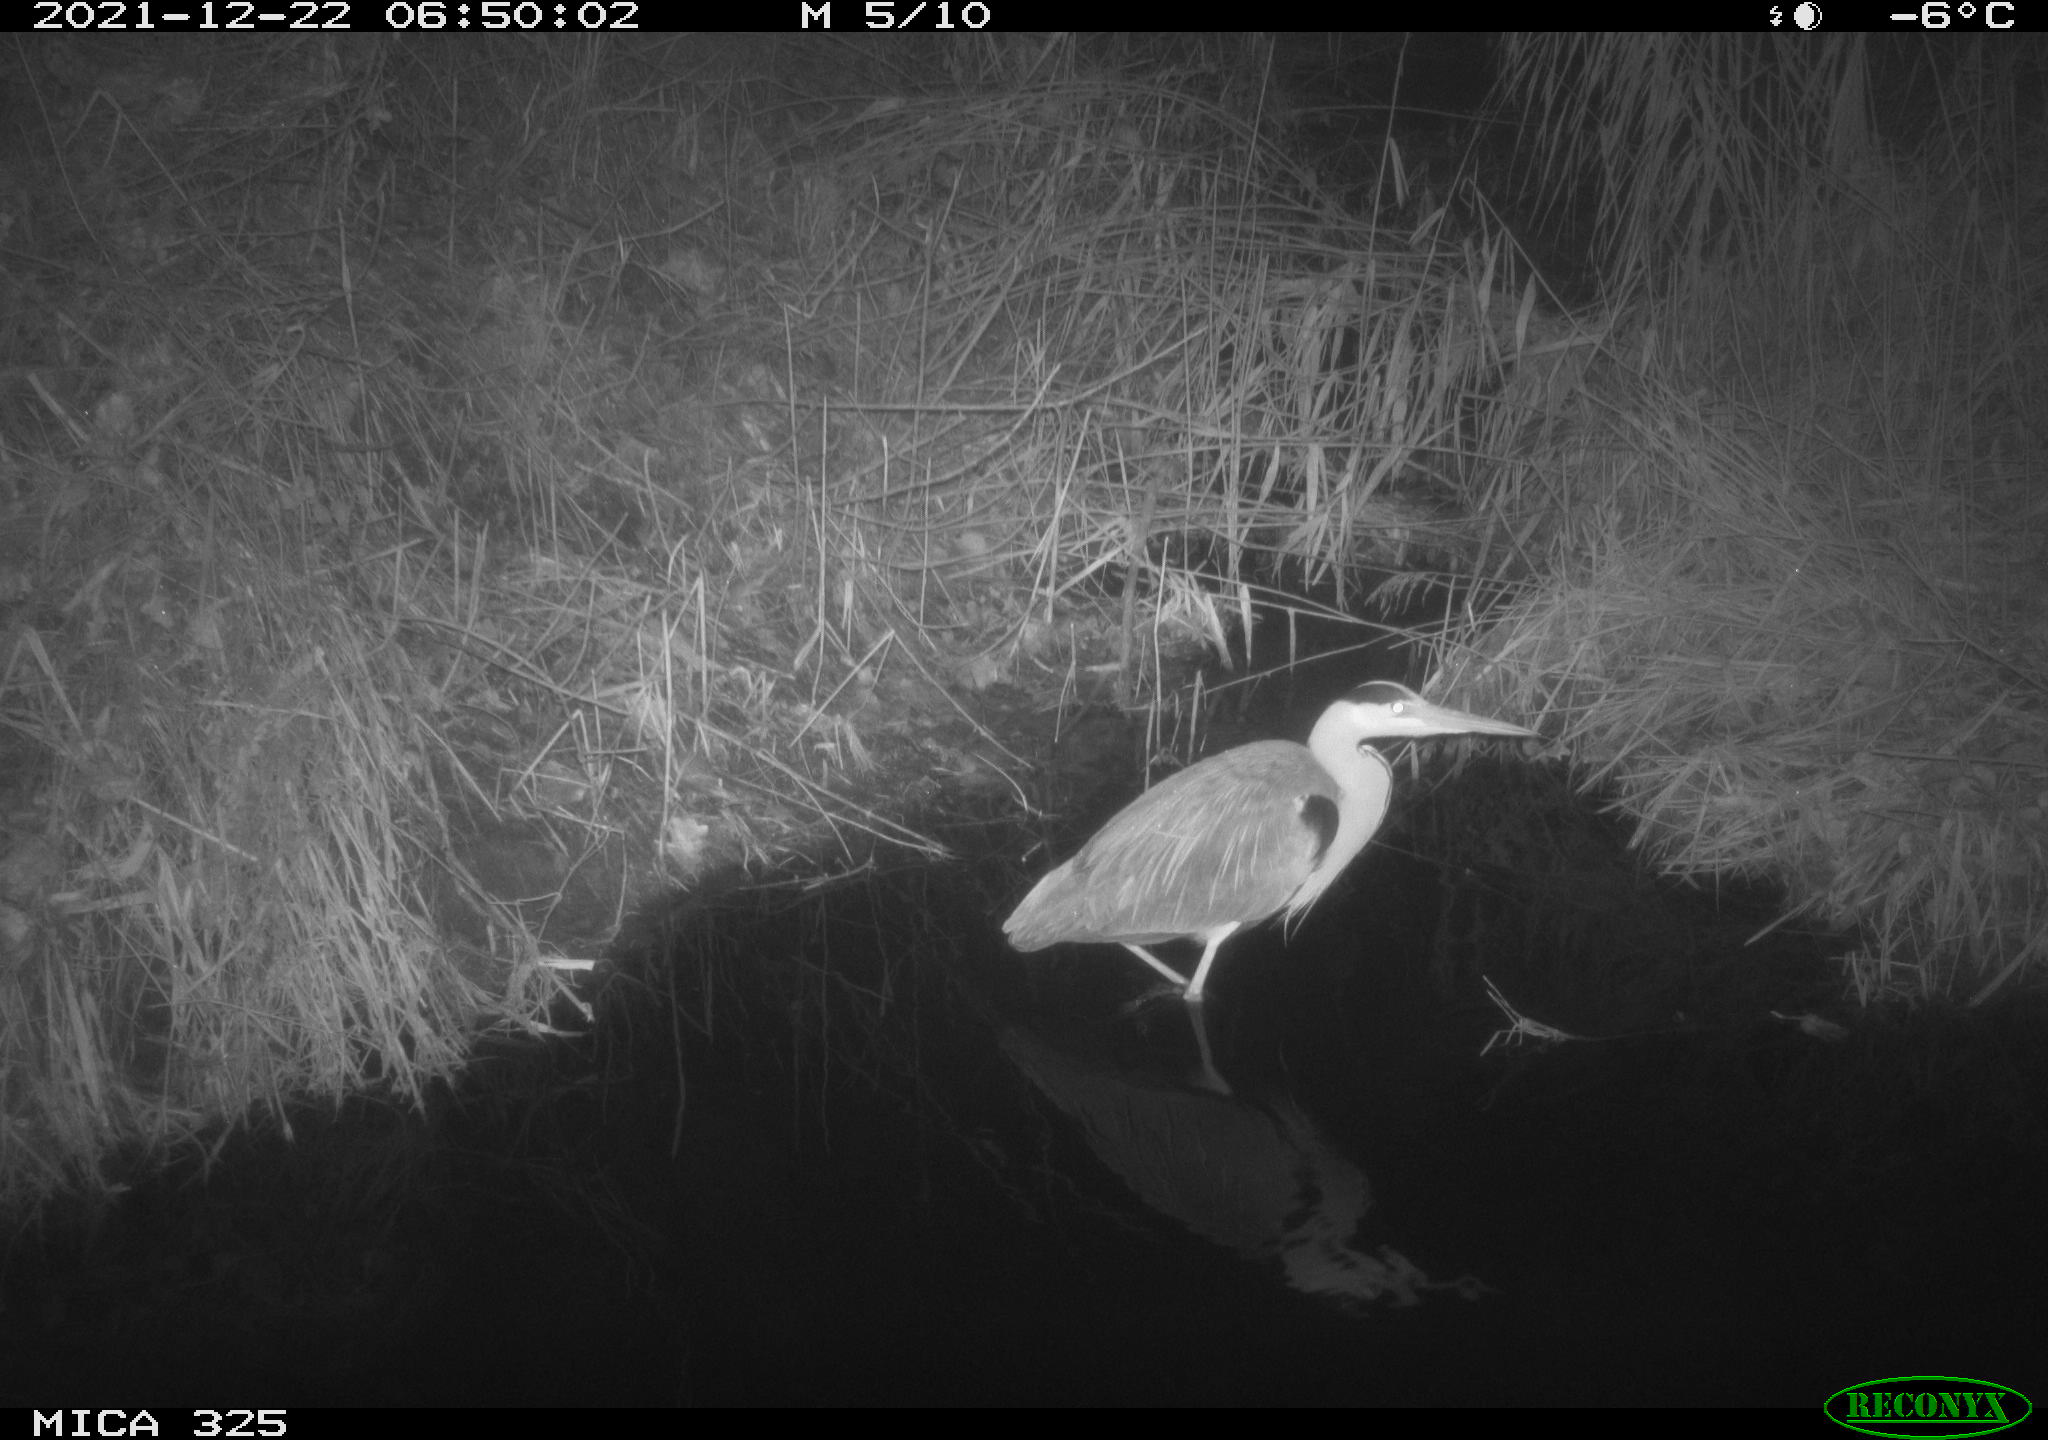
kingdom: Animalia
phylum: Chordata
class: Aves
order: Pelecaniformes
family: Ardeidae
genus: Ardea
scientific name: Ardea cinerea
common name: Grey heron
